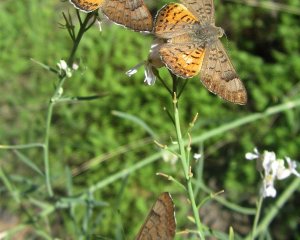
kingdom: Animalia
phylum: Arthropoda
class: Insecta
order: Lepidoptera
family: Lycaenidae
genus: Emesis
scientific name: Emesis zela
